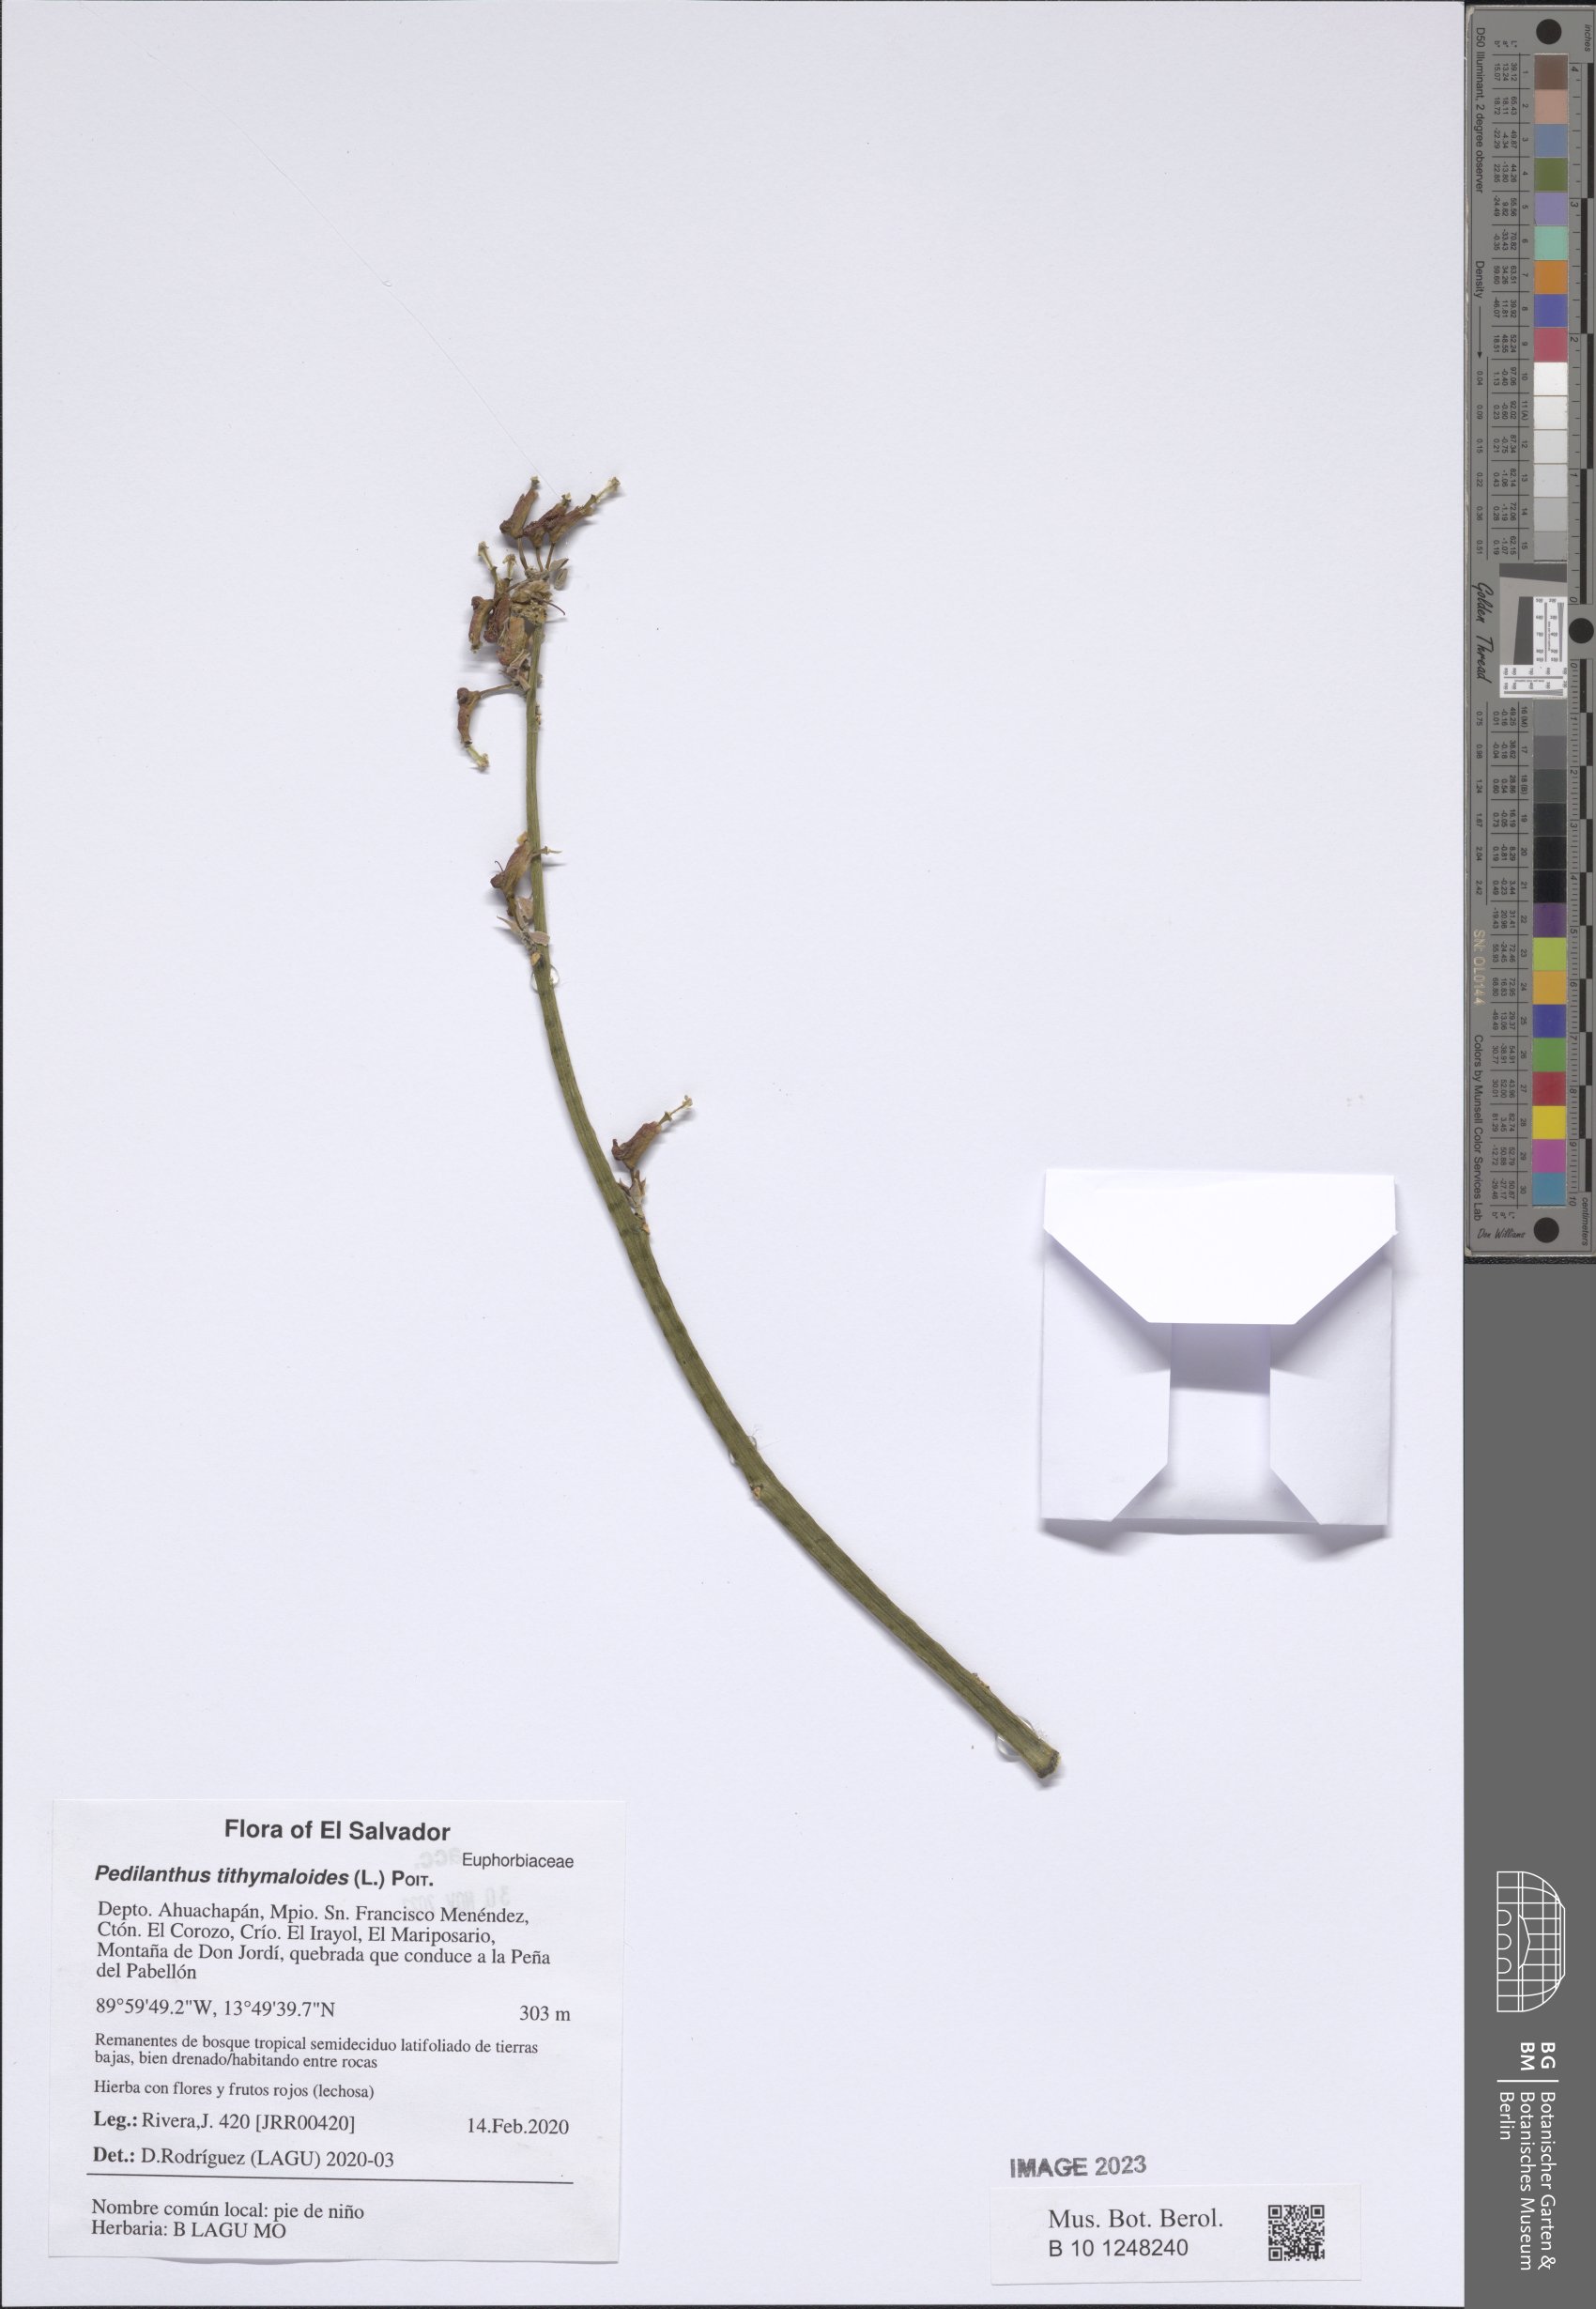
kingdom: Plantae
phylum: Tracheophyta
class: Magnoliopsida
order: Malpighiales
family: Euphorbiaceae
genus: Euphorbia
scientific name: Euphorbia tithymaloides
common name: Slipperplant
